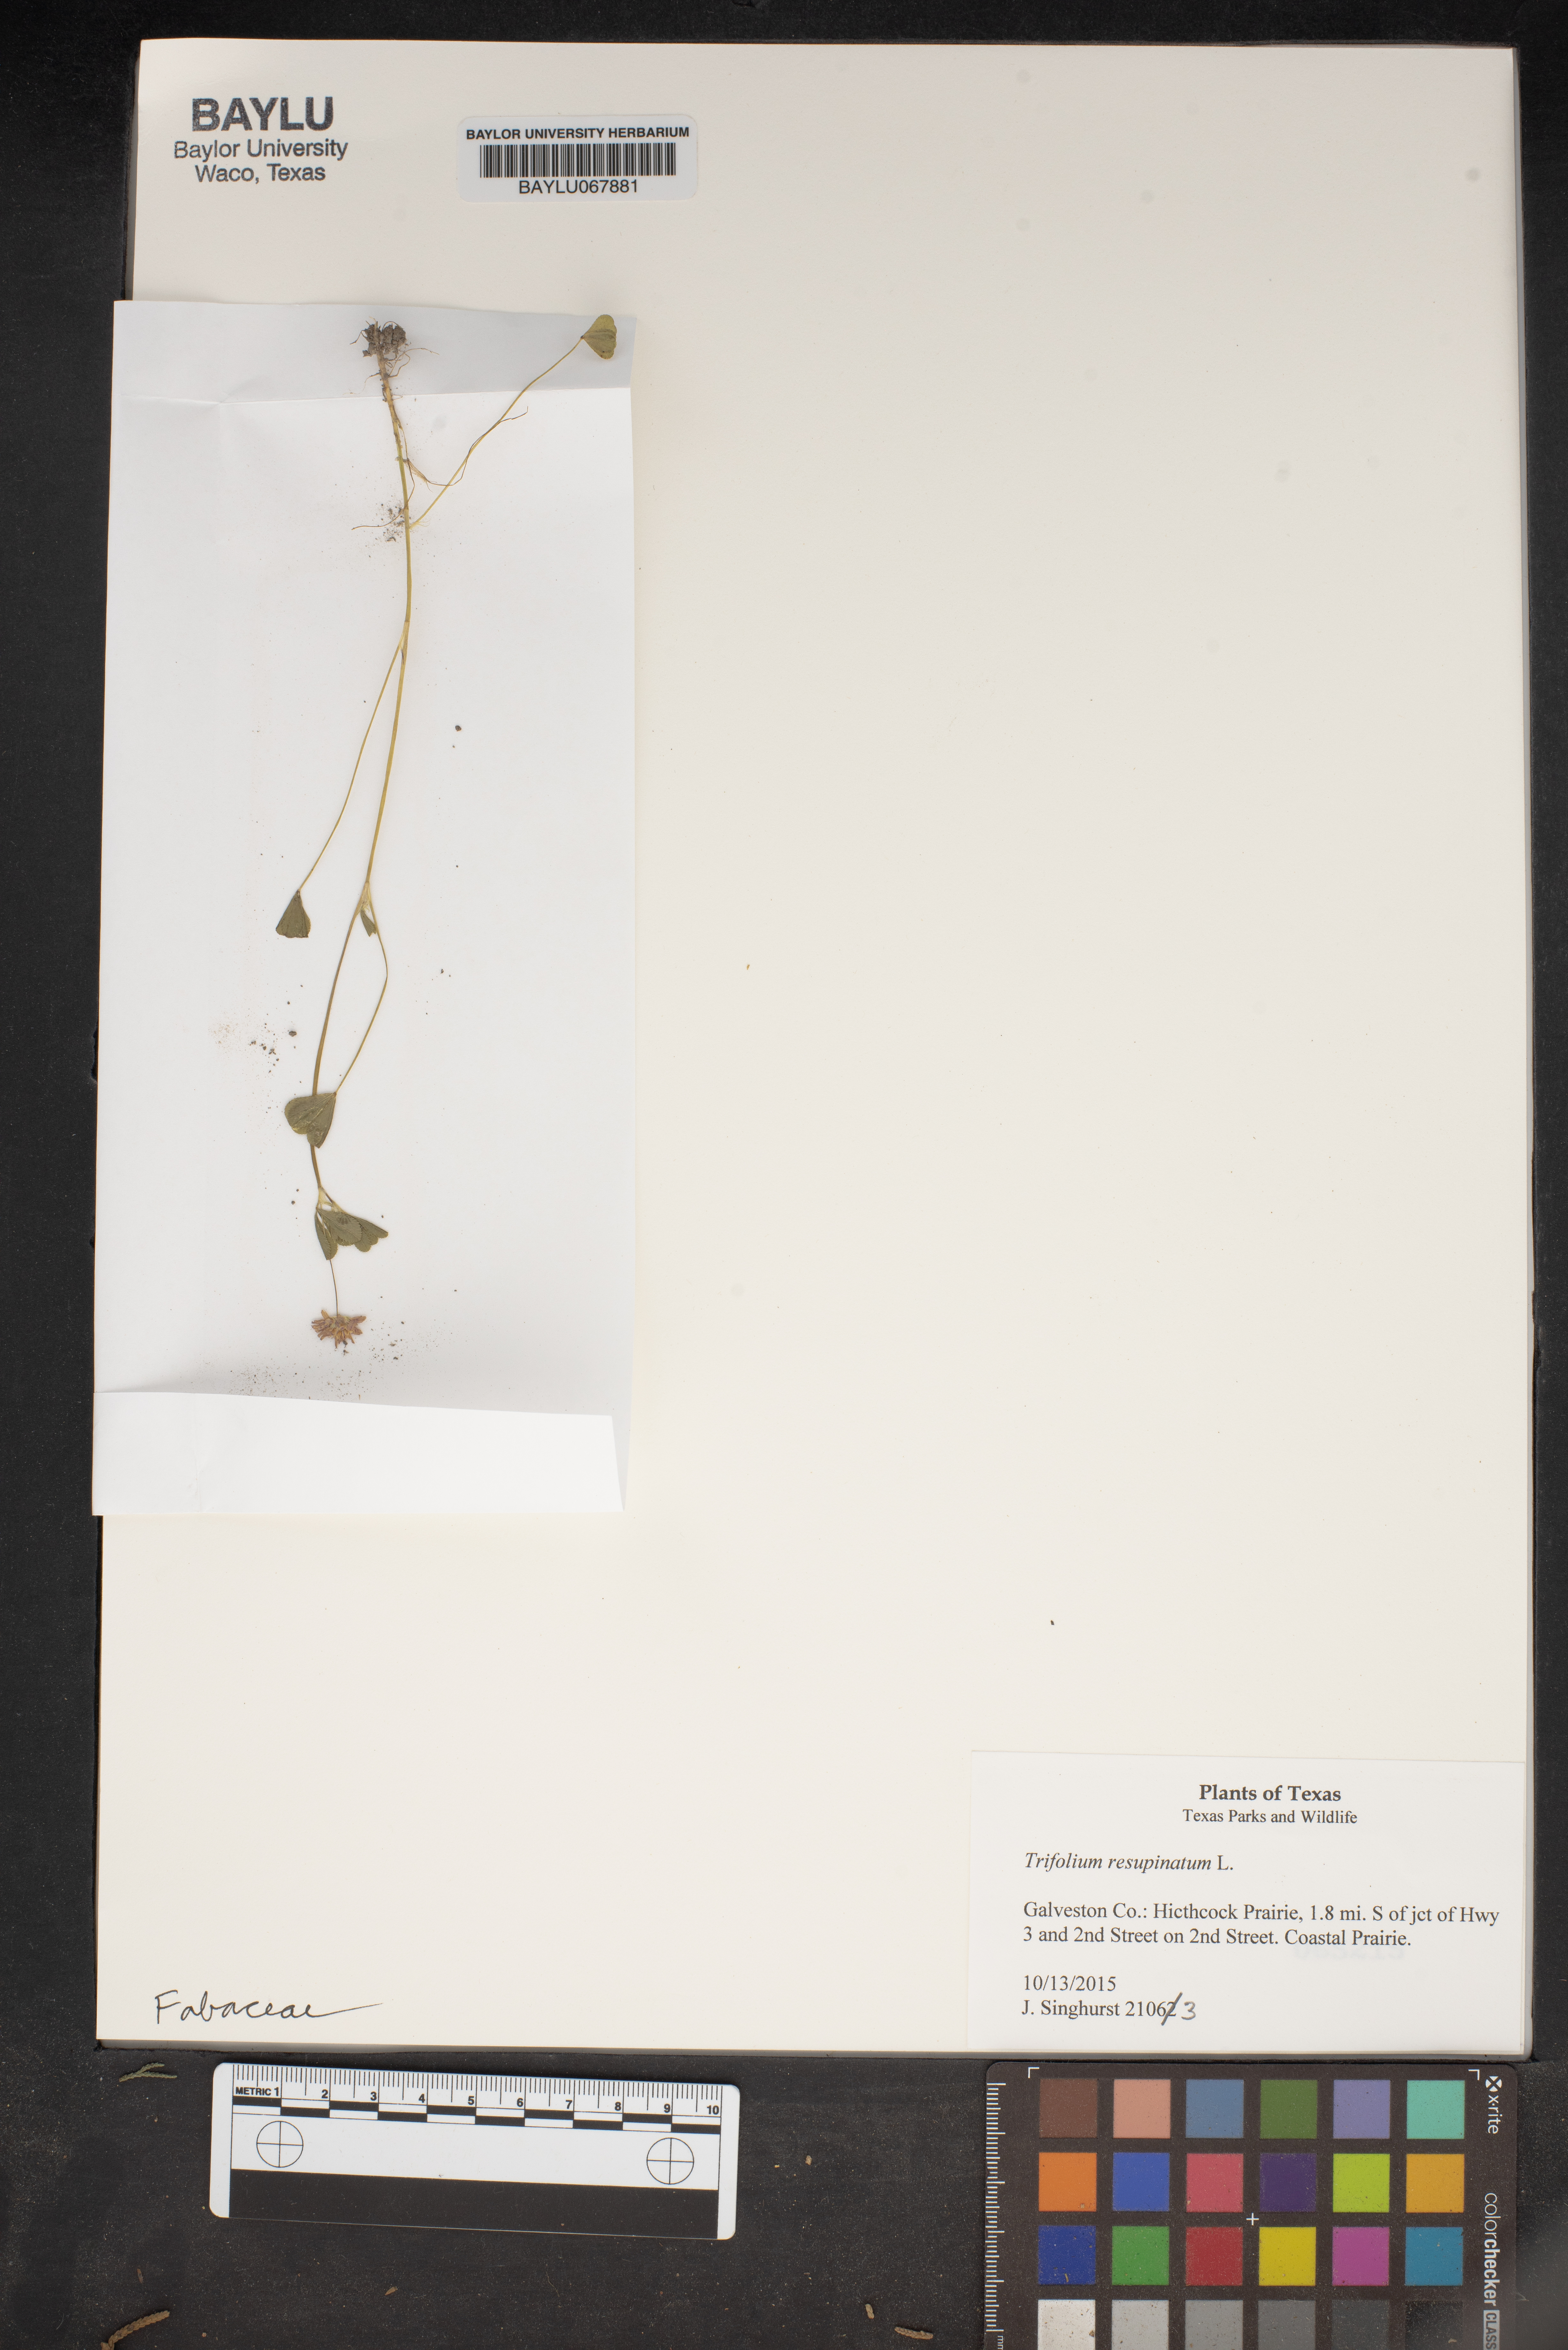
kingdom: Plantae
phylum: Tracheophyta
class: Magnoliopsida
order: Fabales
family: Fabaceae
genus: Trifolium
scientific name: Trifolium resupinatum
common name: Reversed clover
